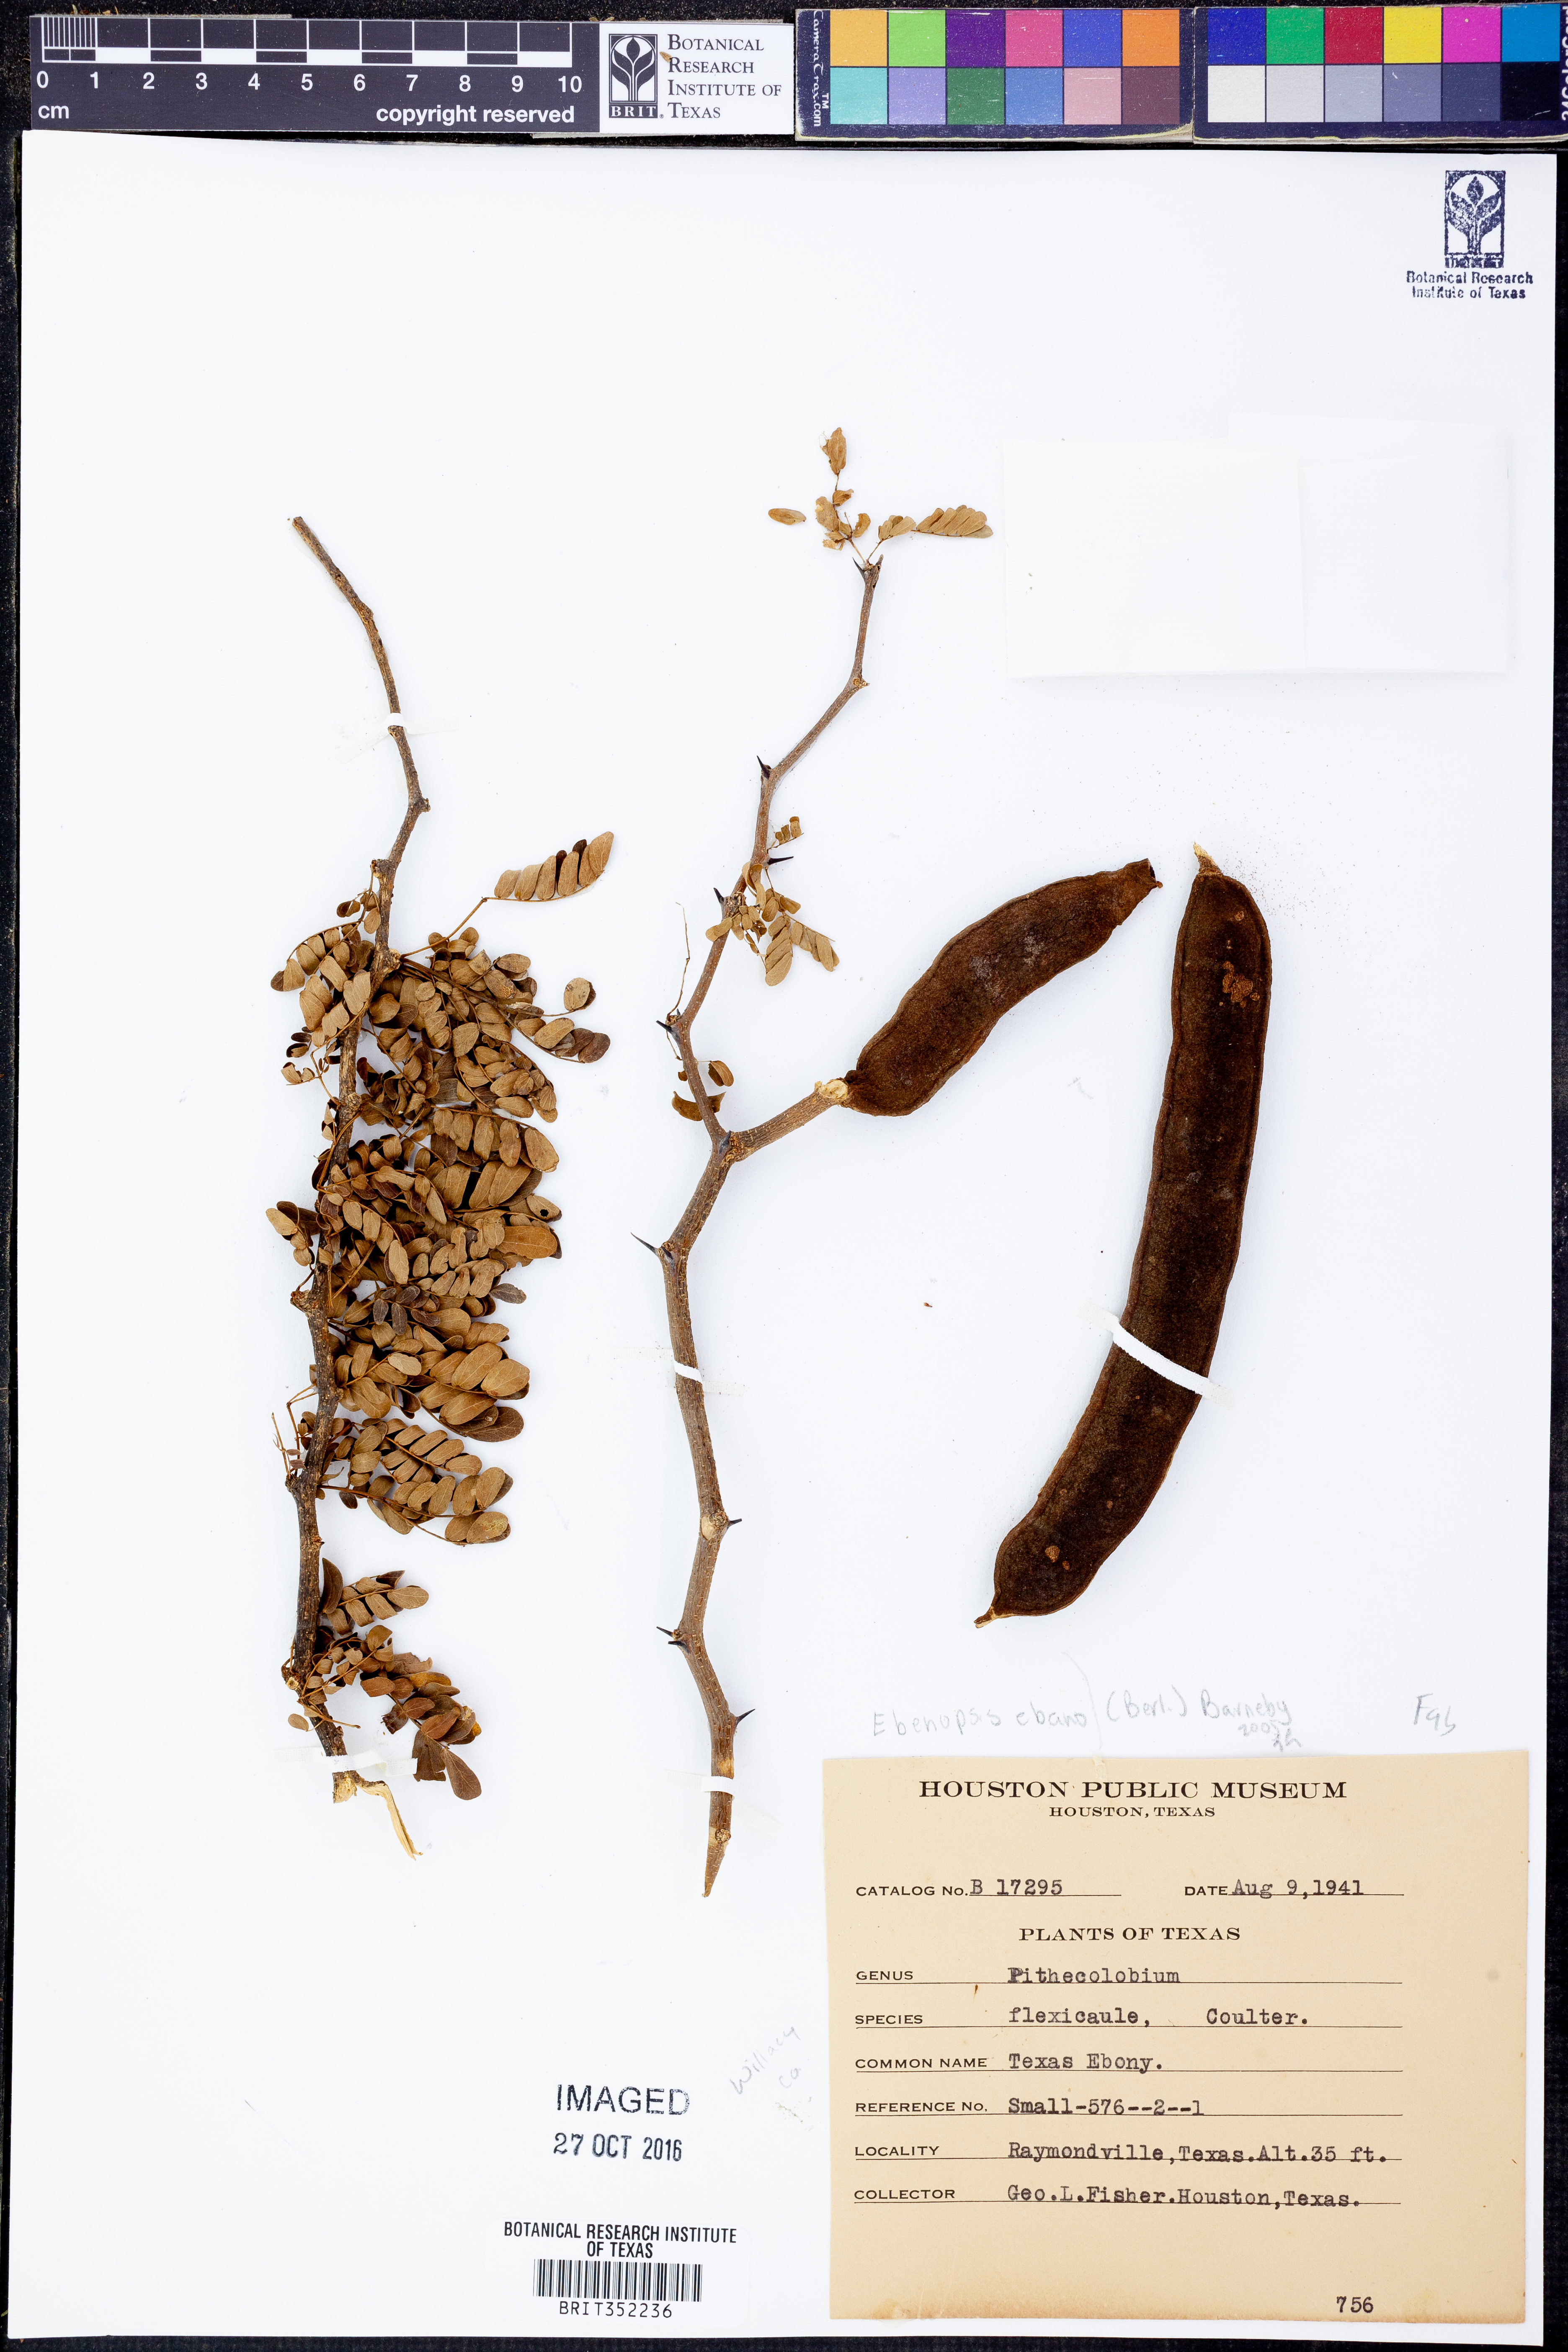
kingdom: Plantae
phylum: Tracheophyta
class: Magnoliopsida
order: Fabales
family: Fabaceae
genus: Ebenopsis
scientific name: Ebenopsis ebano
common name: Ebony blackbead
